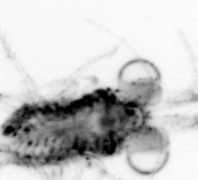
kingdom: Animalia
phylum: Arthropoda
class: Malacostraca
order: Decapoda
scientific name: Decapoda
